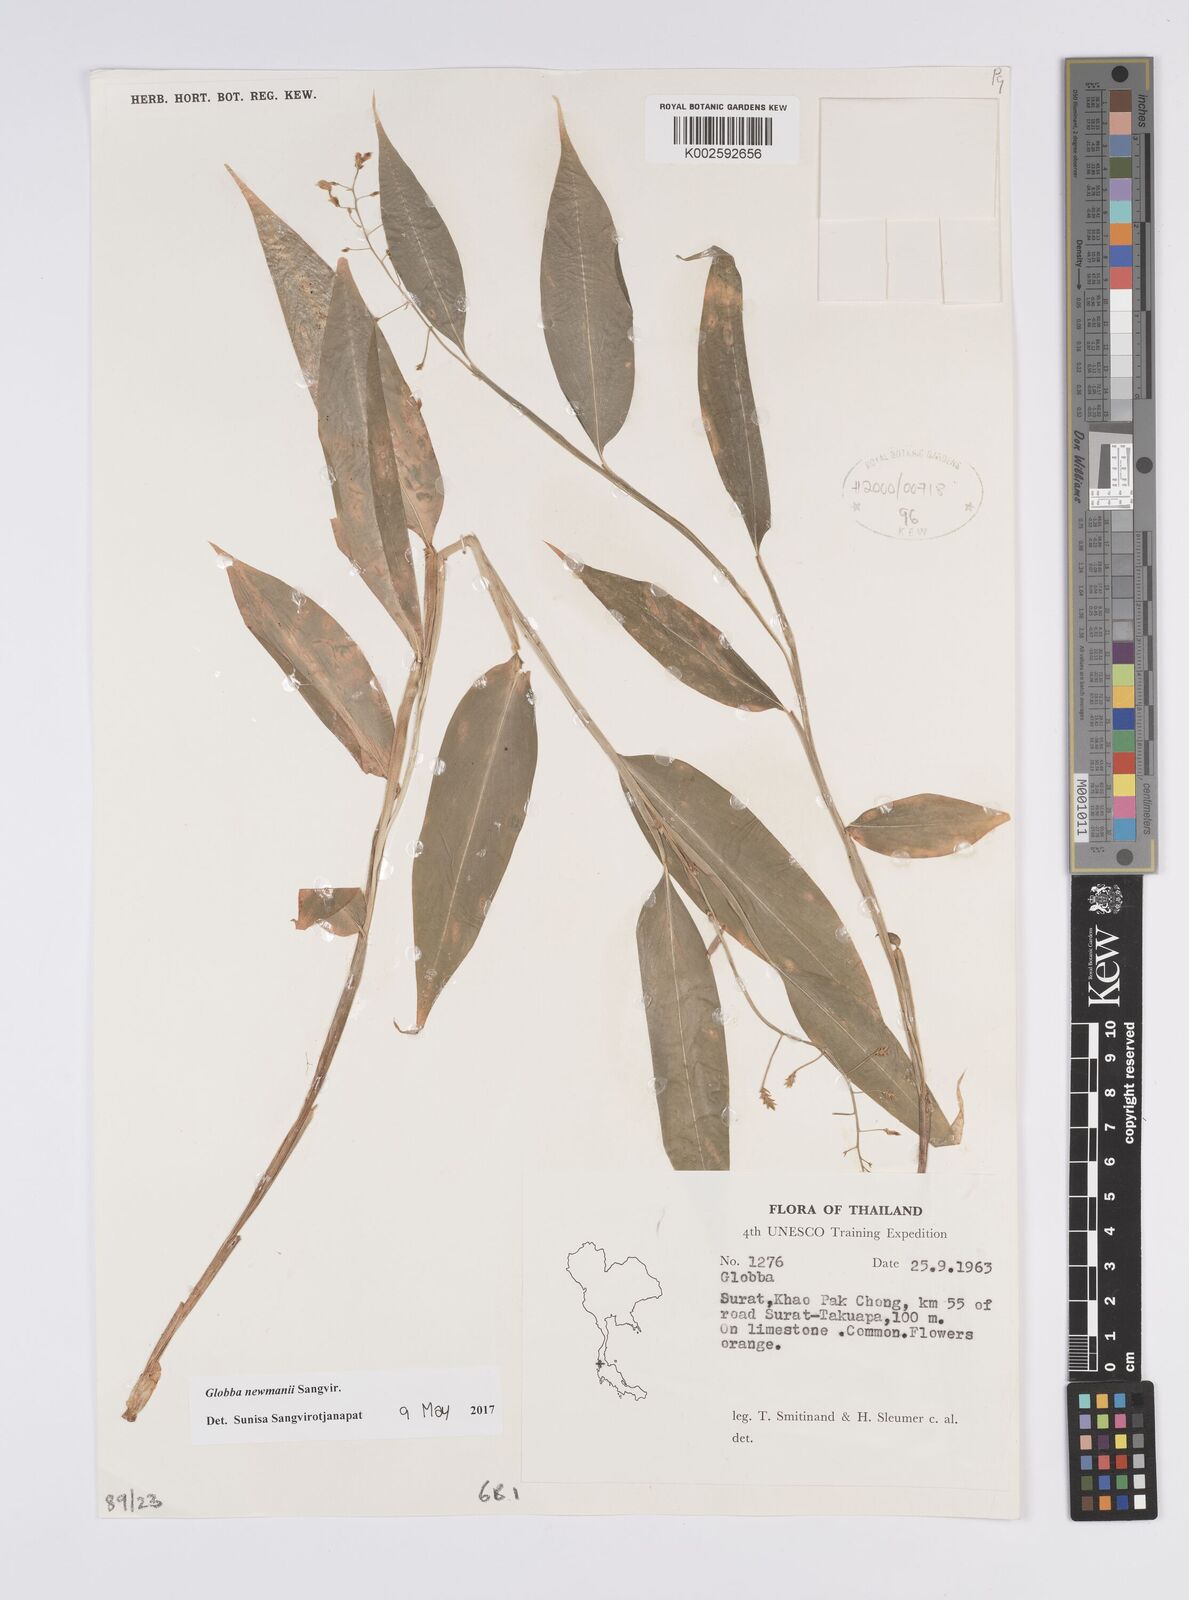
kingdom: Plantae
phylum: Tracheophyta
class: Liliopsida
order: Zingiberales
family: Zingiberaceae
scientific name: Zingiberaceae
